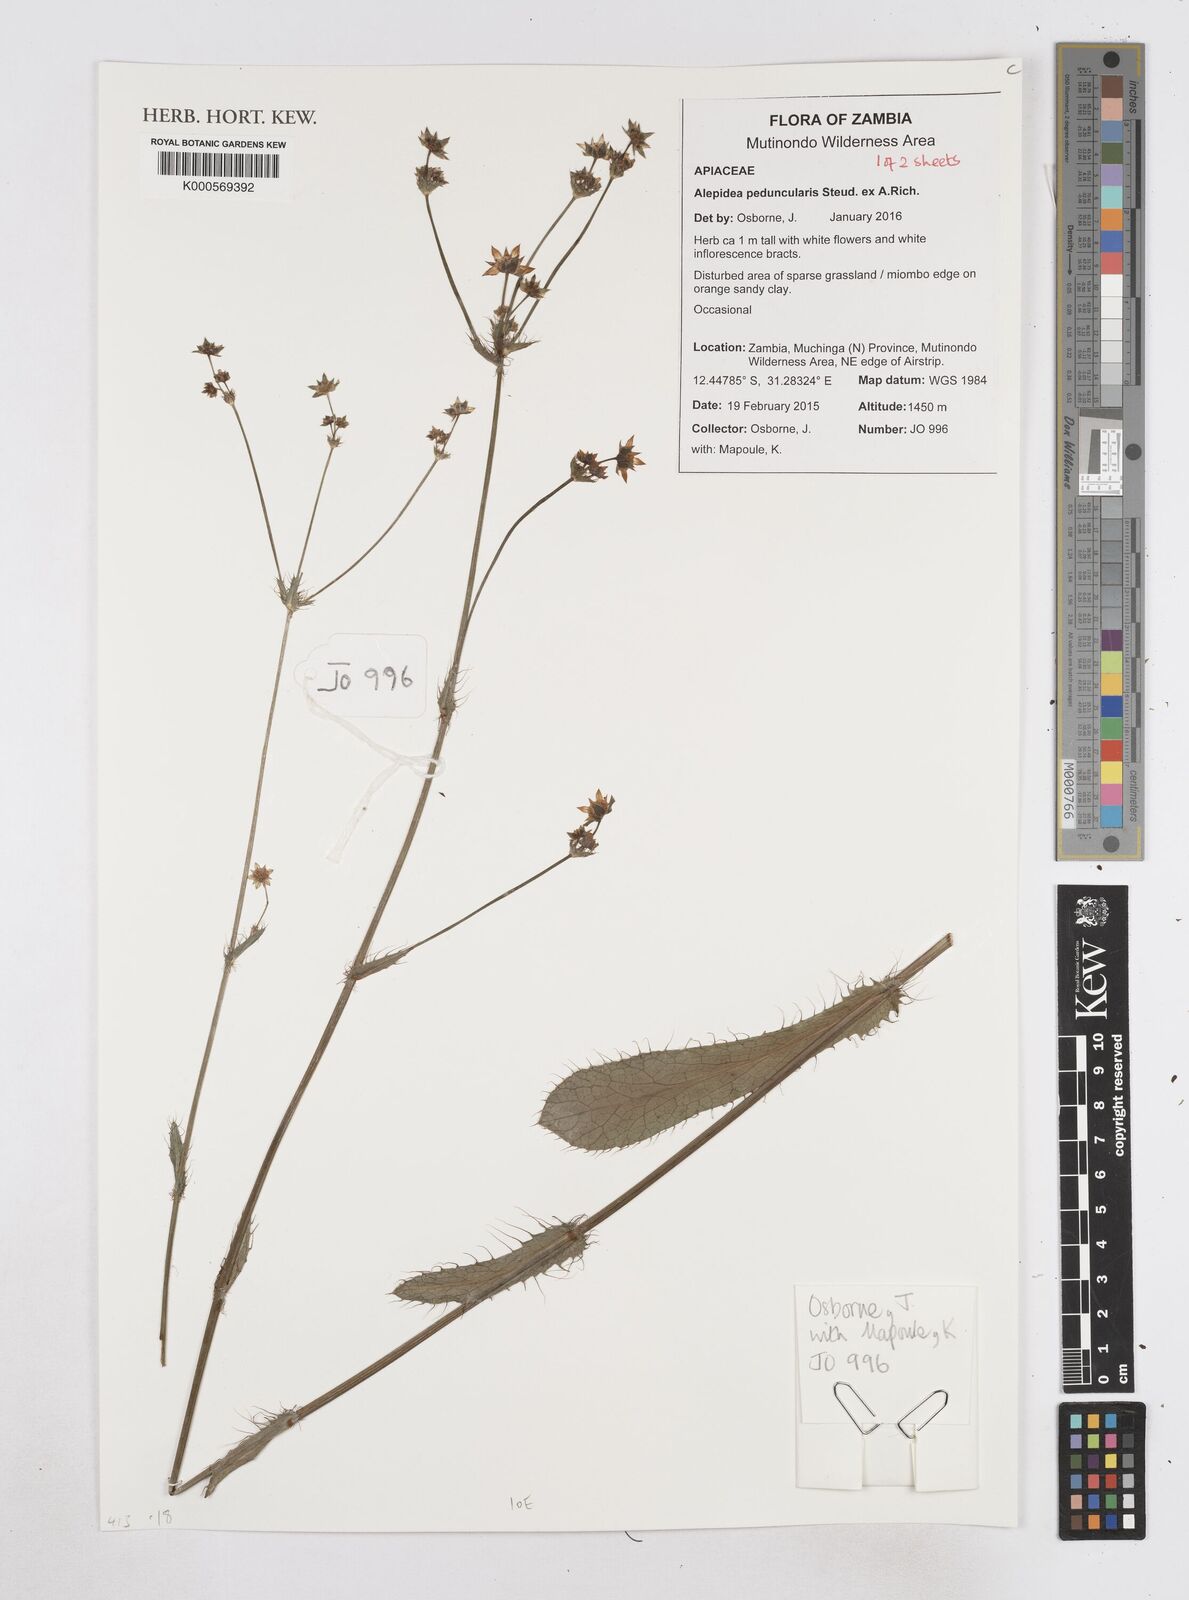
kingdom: Plantae
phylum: Tracheophyta
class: Magnoliopsida
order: Apiales
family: Apiaceae
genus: Alepidea
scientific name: Alepidea peduncularis
